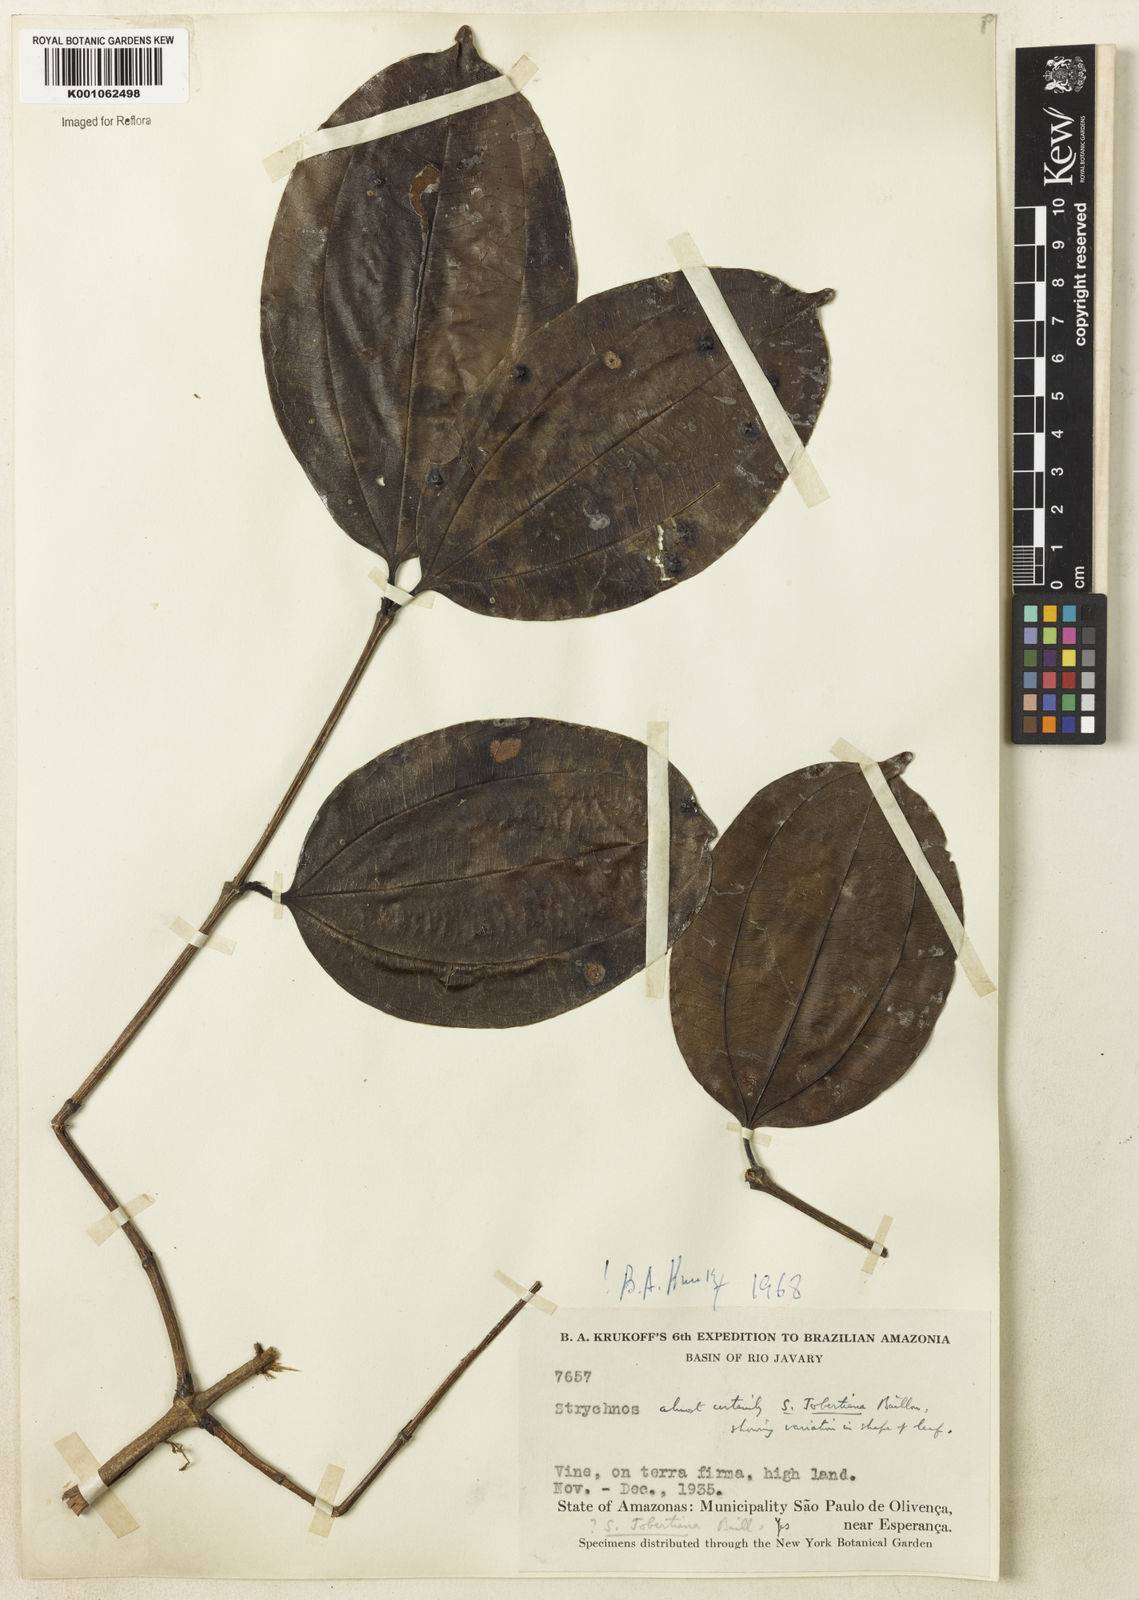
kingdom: Plantae
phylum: Tracheophyta
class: Magnoliopsida
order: Gentianales
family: Loganiaceae
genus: Strychnos
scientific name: Strychnos jobertiana
